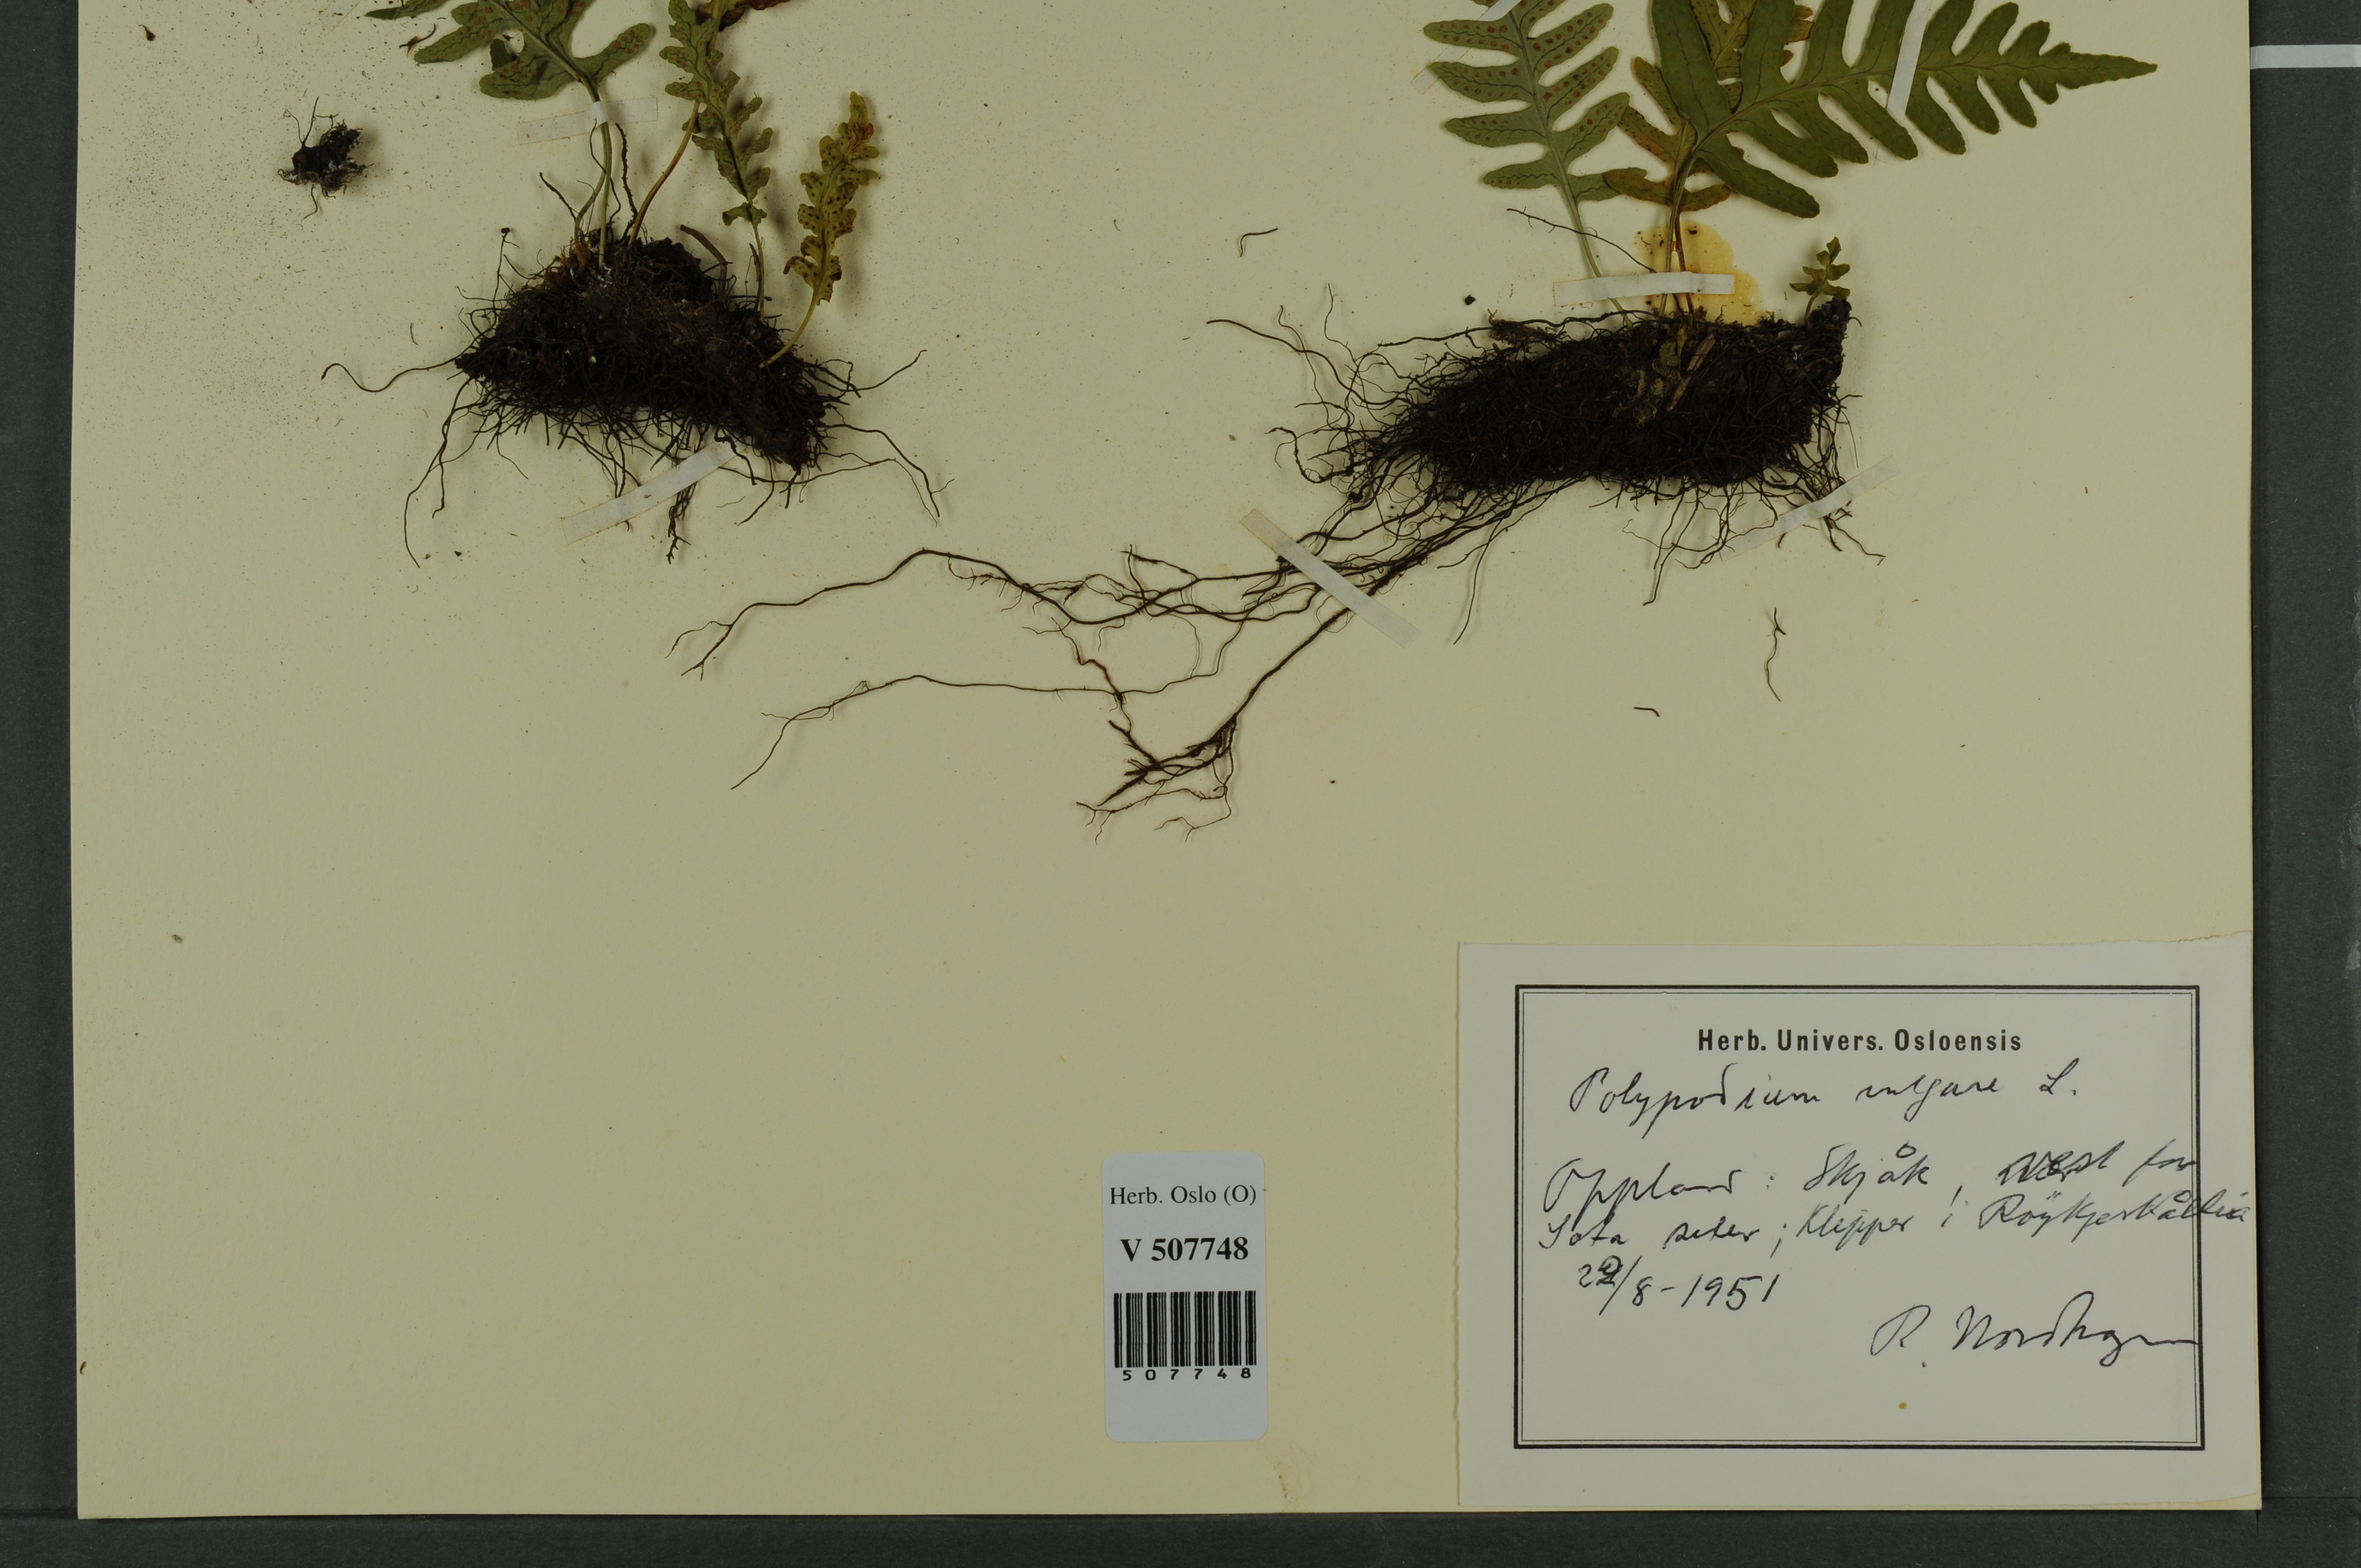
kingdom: Plantae
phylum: Tracheophyta
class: Polypodiopsida
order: Polypodiales
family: Polypodiaceae
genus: Polypodium
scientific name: Polypodium vulgare
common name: Common polypody
